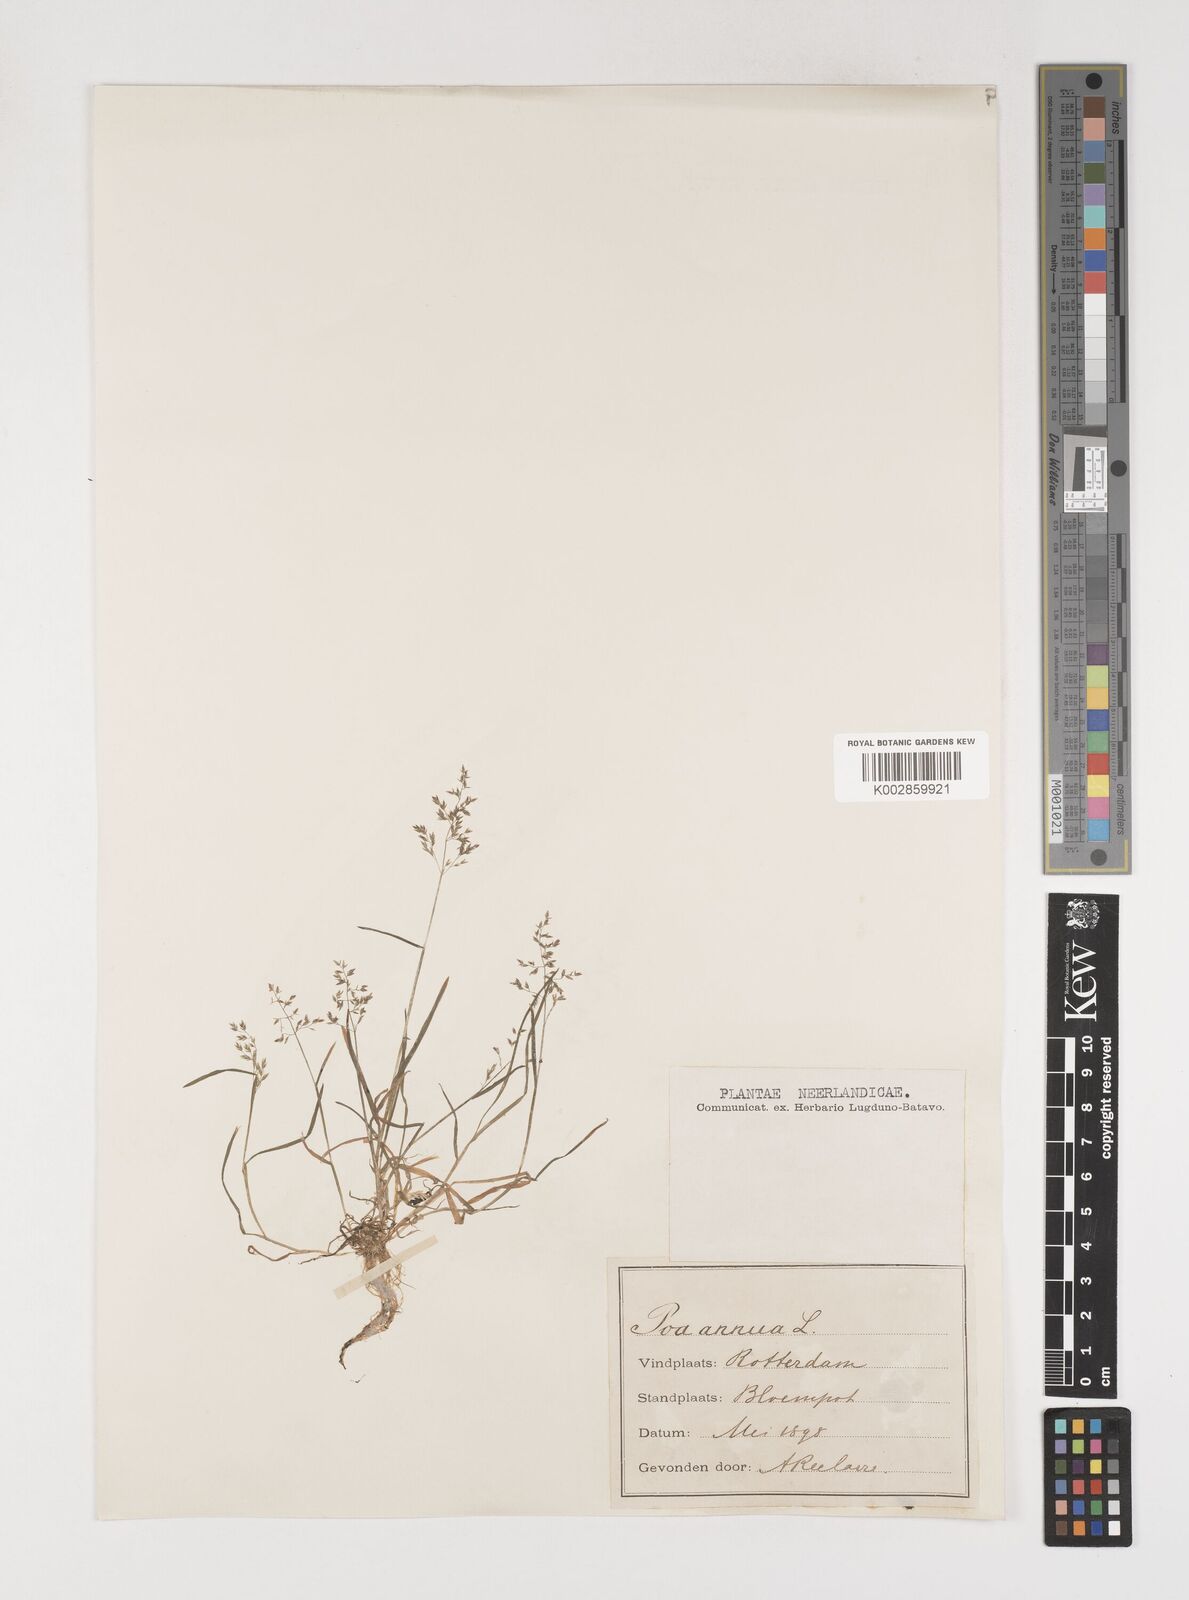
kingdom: Plantae
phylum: Tracheophyta
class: Liliopsida
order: Poales
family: Poaceae
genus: Poa
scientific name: Poa annua
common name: Annual bluegrass
